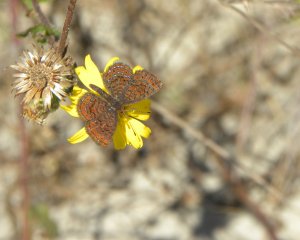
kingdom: Animalia
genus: Calephelis
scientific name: Calephelis virginiensis
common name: Little Metalmark
